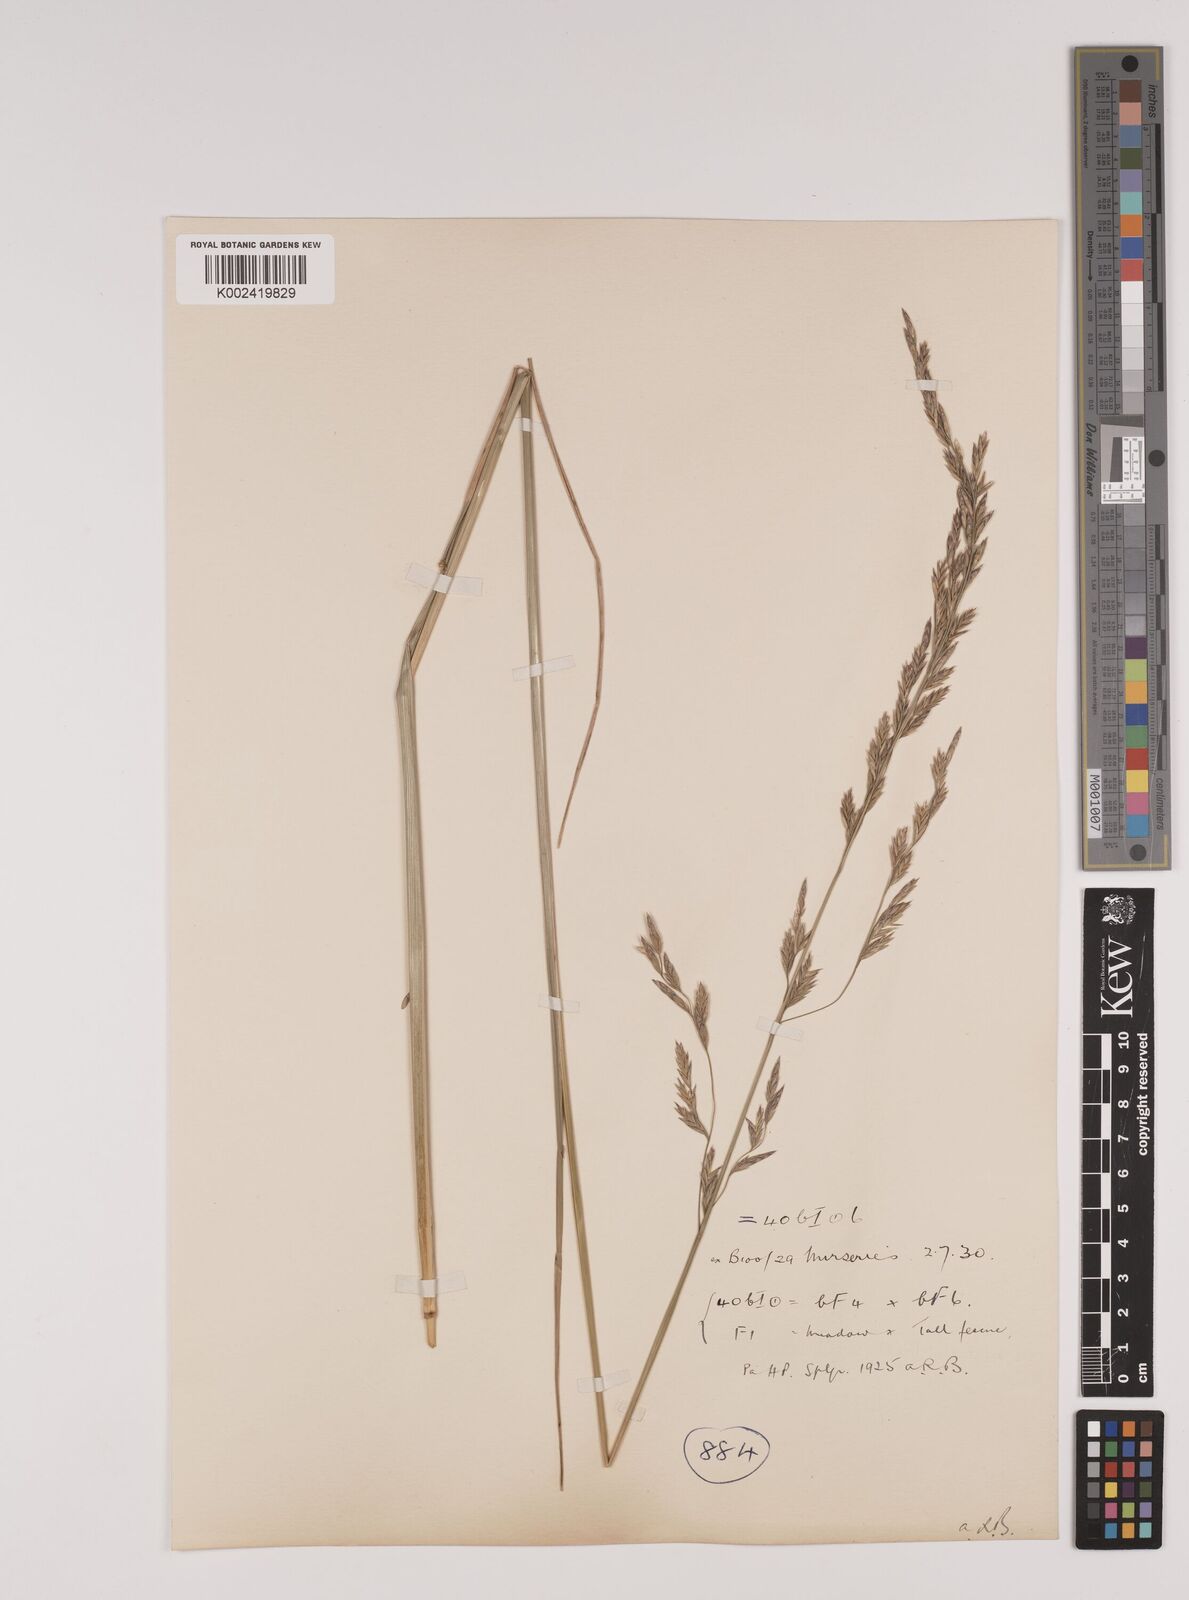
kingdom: Plantae
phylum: Tracheophyta
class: Liliopsida
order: Poales
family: Poaceae
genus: Festuca
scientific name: Festuca rubra
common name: Red fescue
